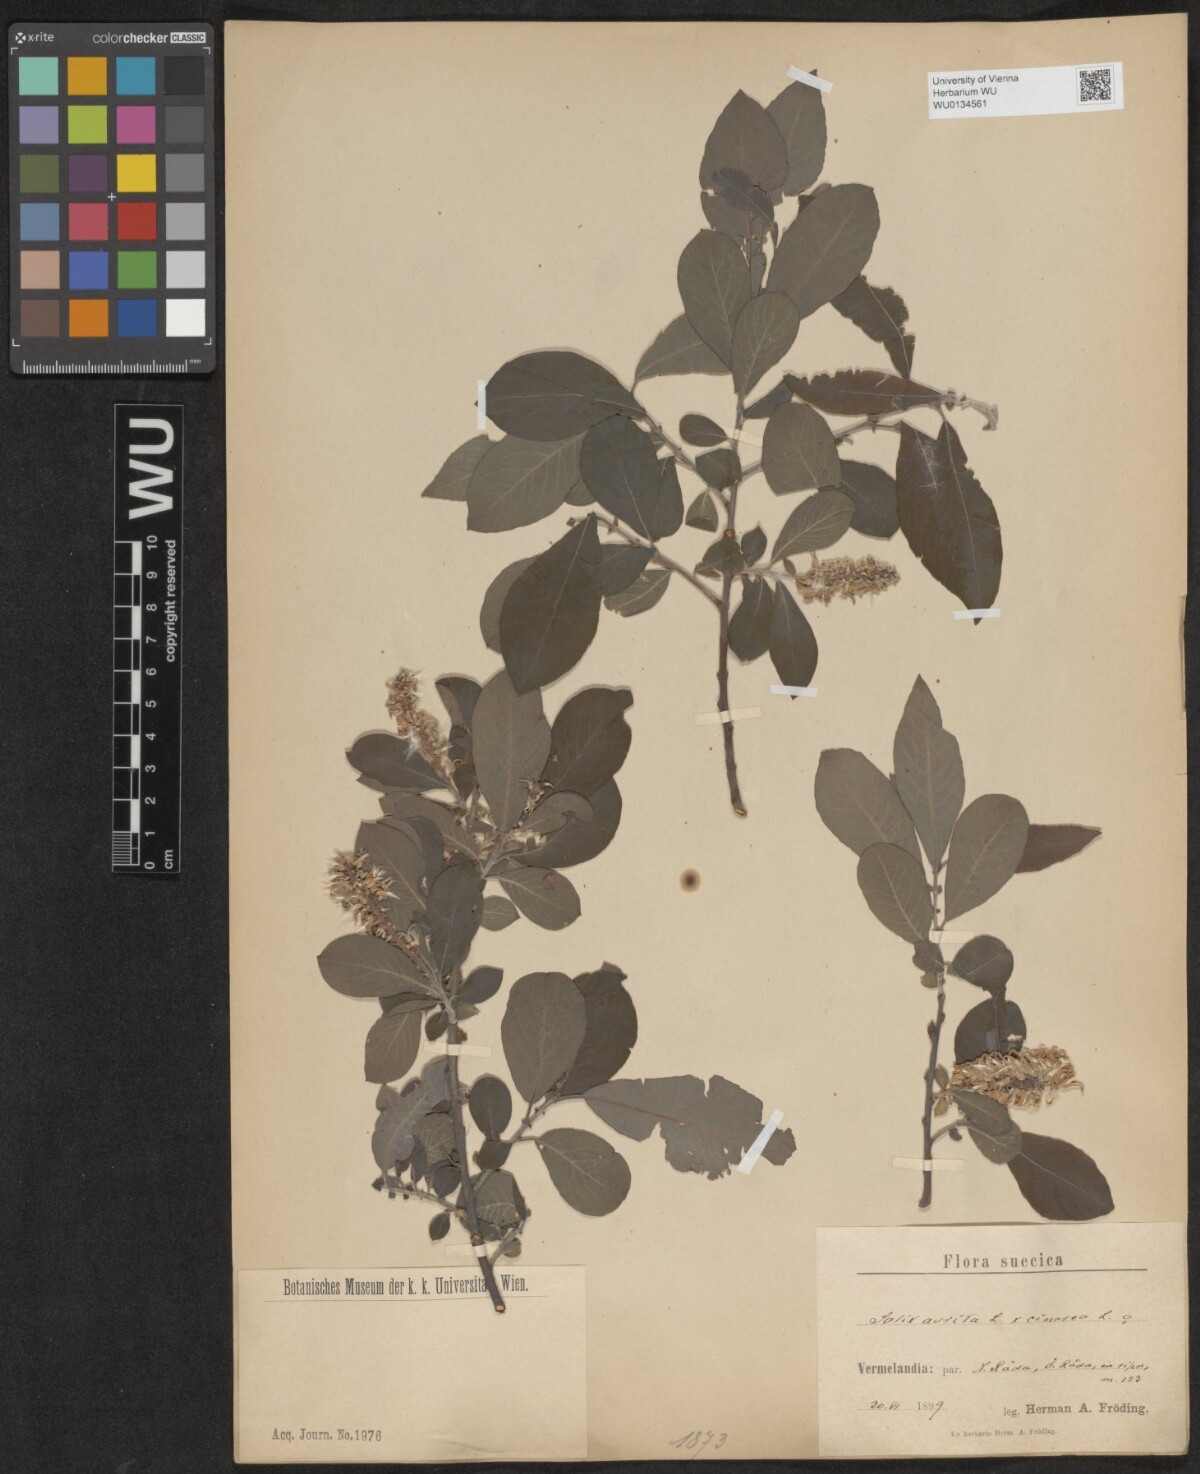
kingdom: Plantae
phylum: Tracheophyta
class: Magnoliopsida
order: Malpighiales
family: Salicaceae
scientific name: Salicaceae
